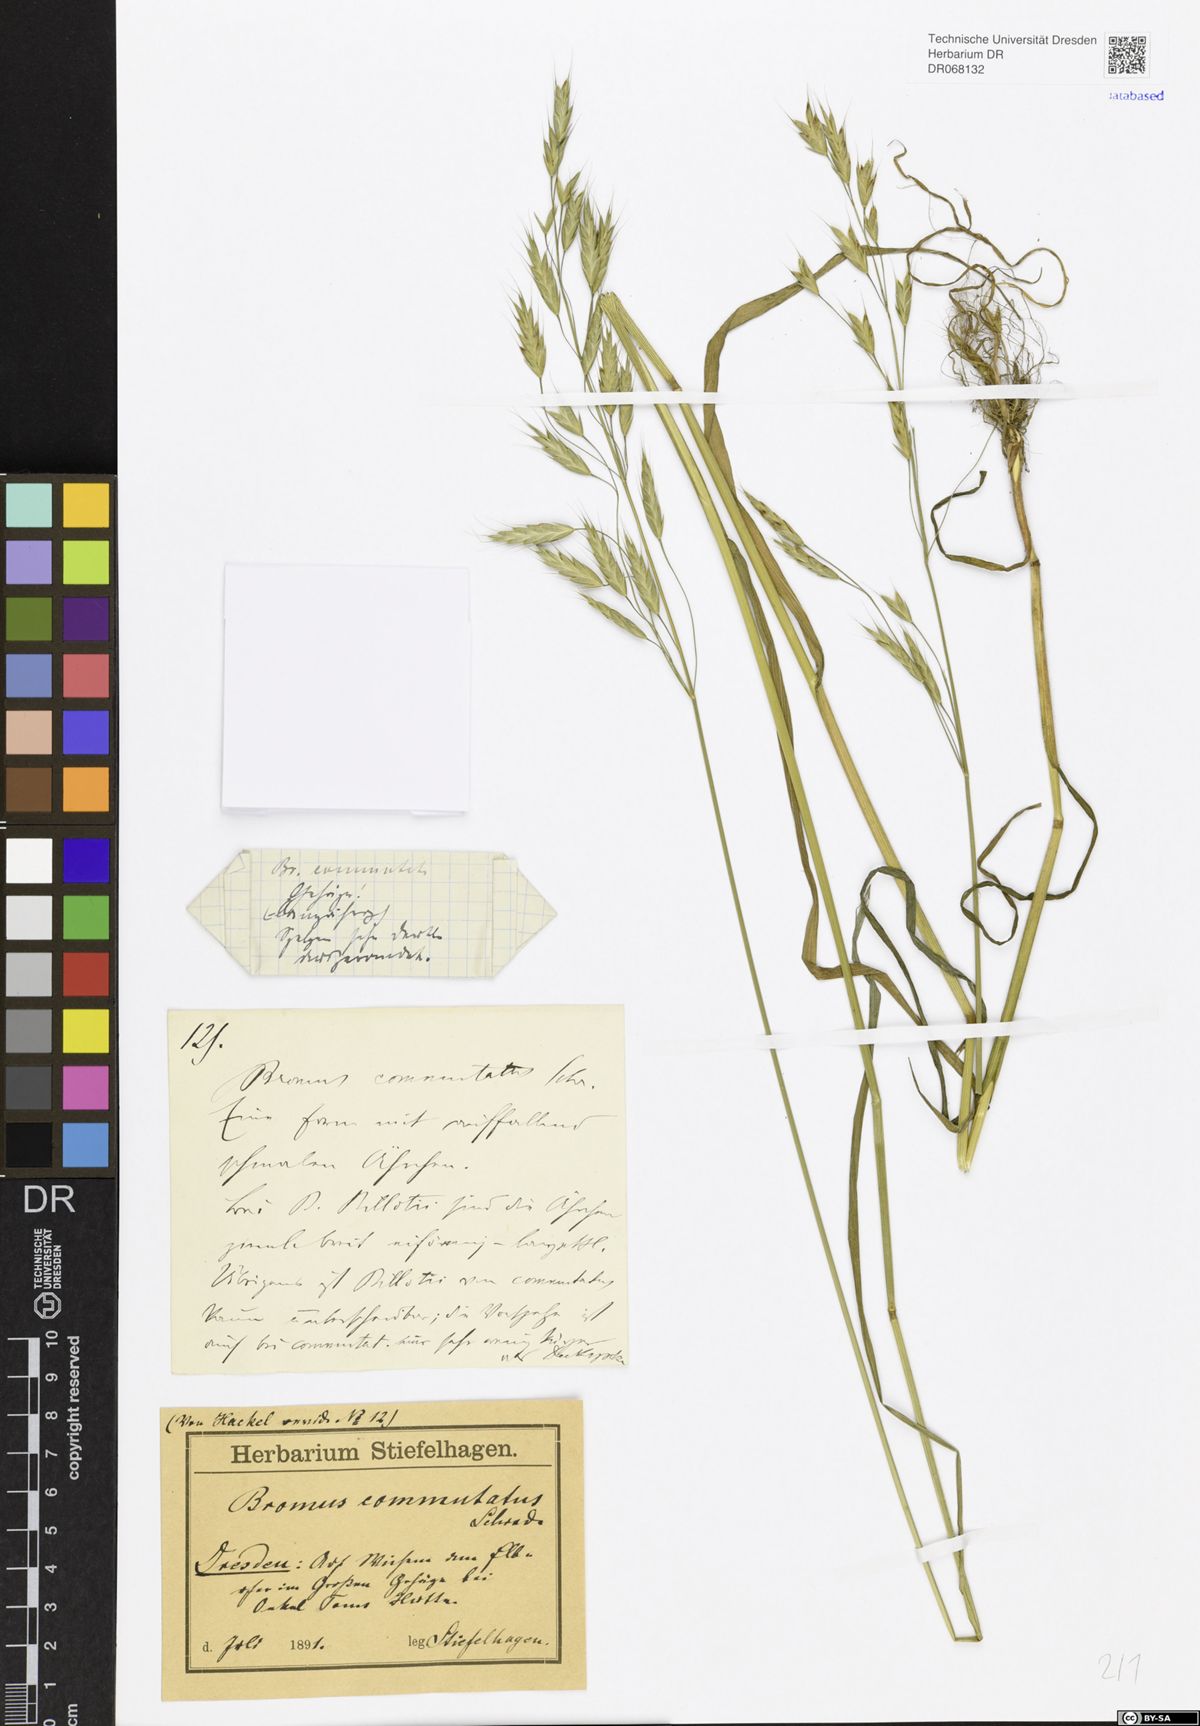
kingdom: Plantae
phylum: Tracheophyta
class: Liliopsida
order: Poales
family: Poaceae
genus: Bromus
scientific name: Bromus commutatus
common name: Meadow brome
